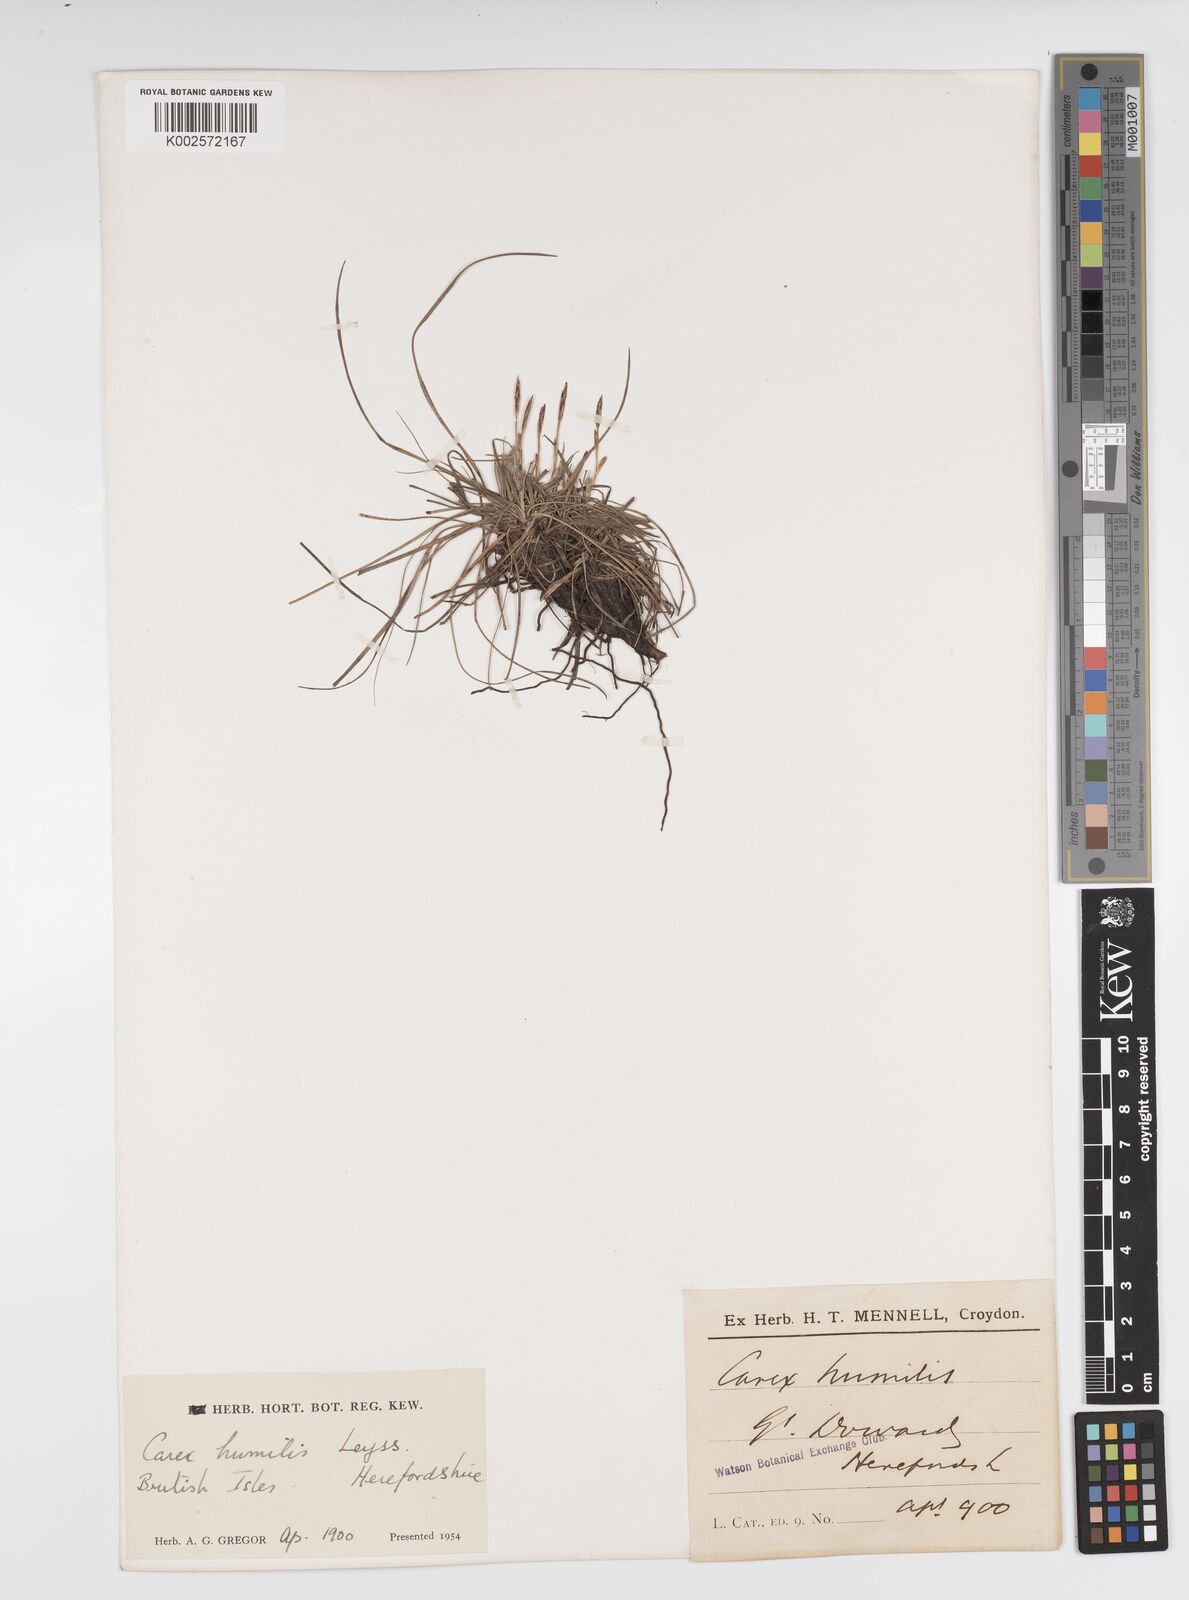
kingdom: Plantae
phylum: Tracheophyta
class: Liliopsida
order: Poales
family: Cyperaceae
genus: Carex
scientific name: Carex humilis
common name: Dwarf sedge
